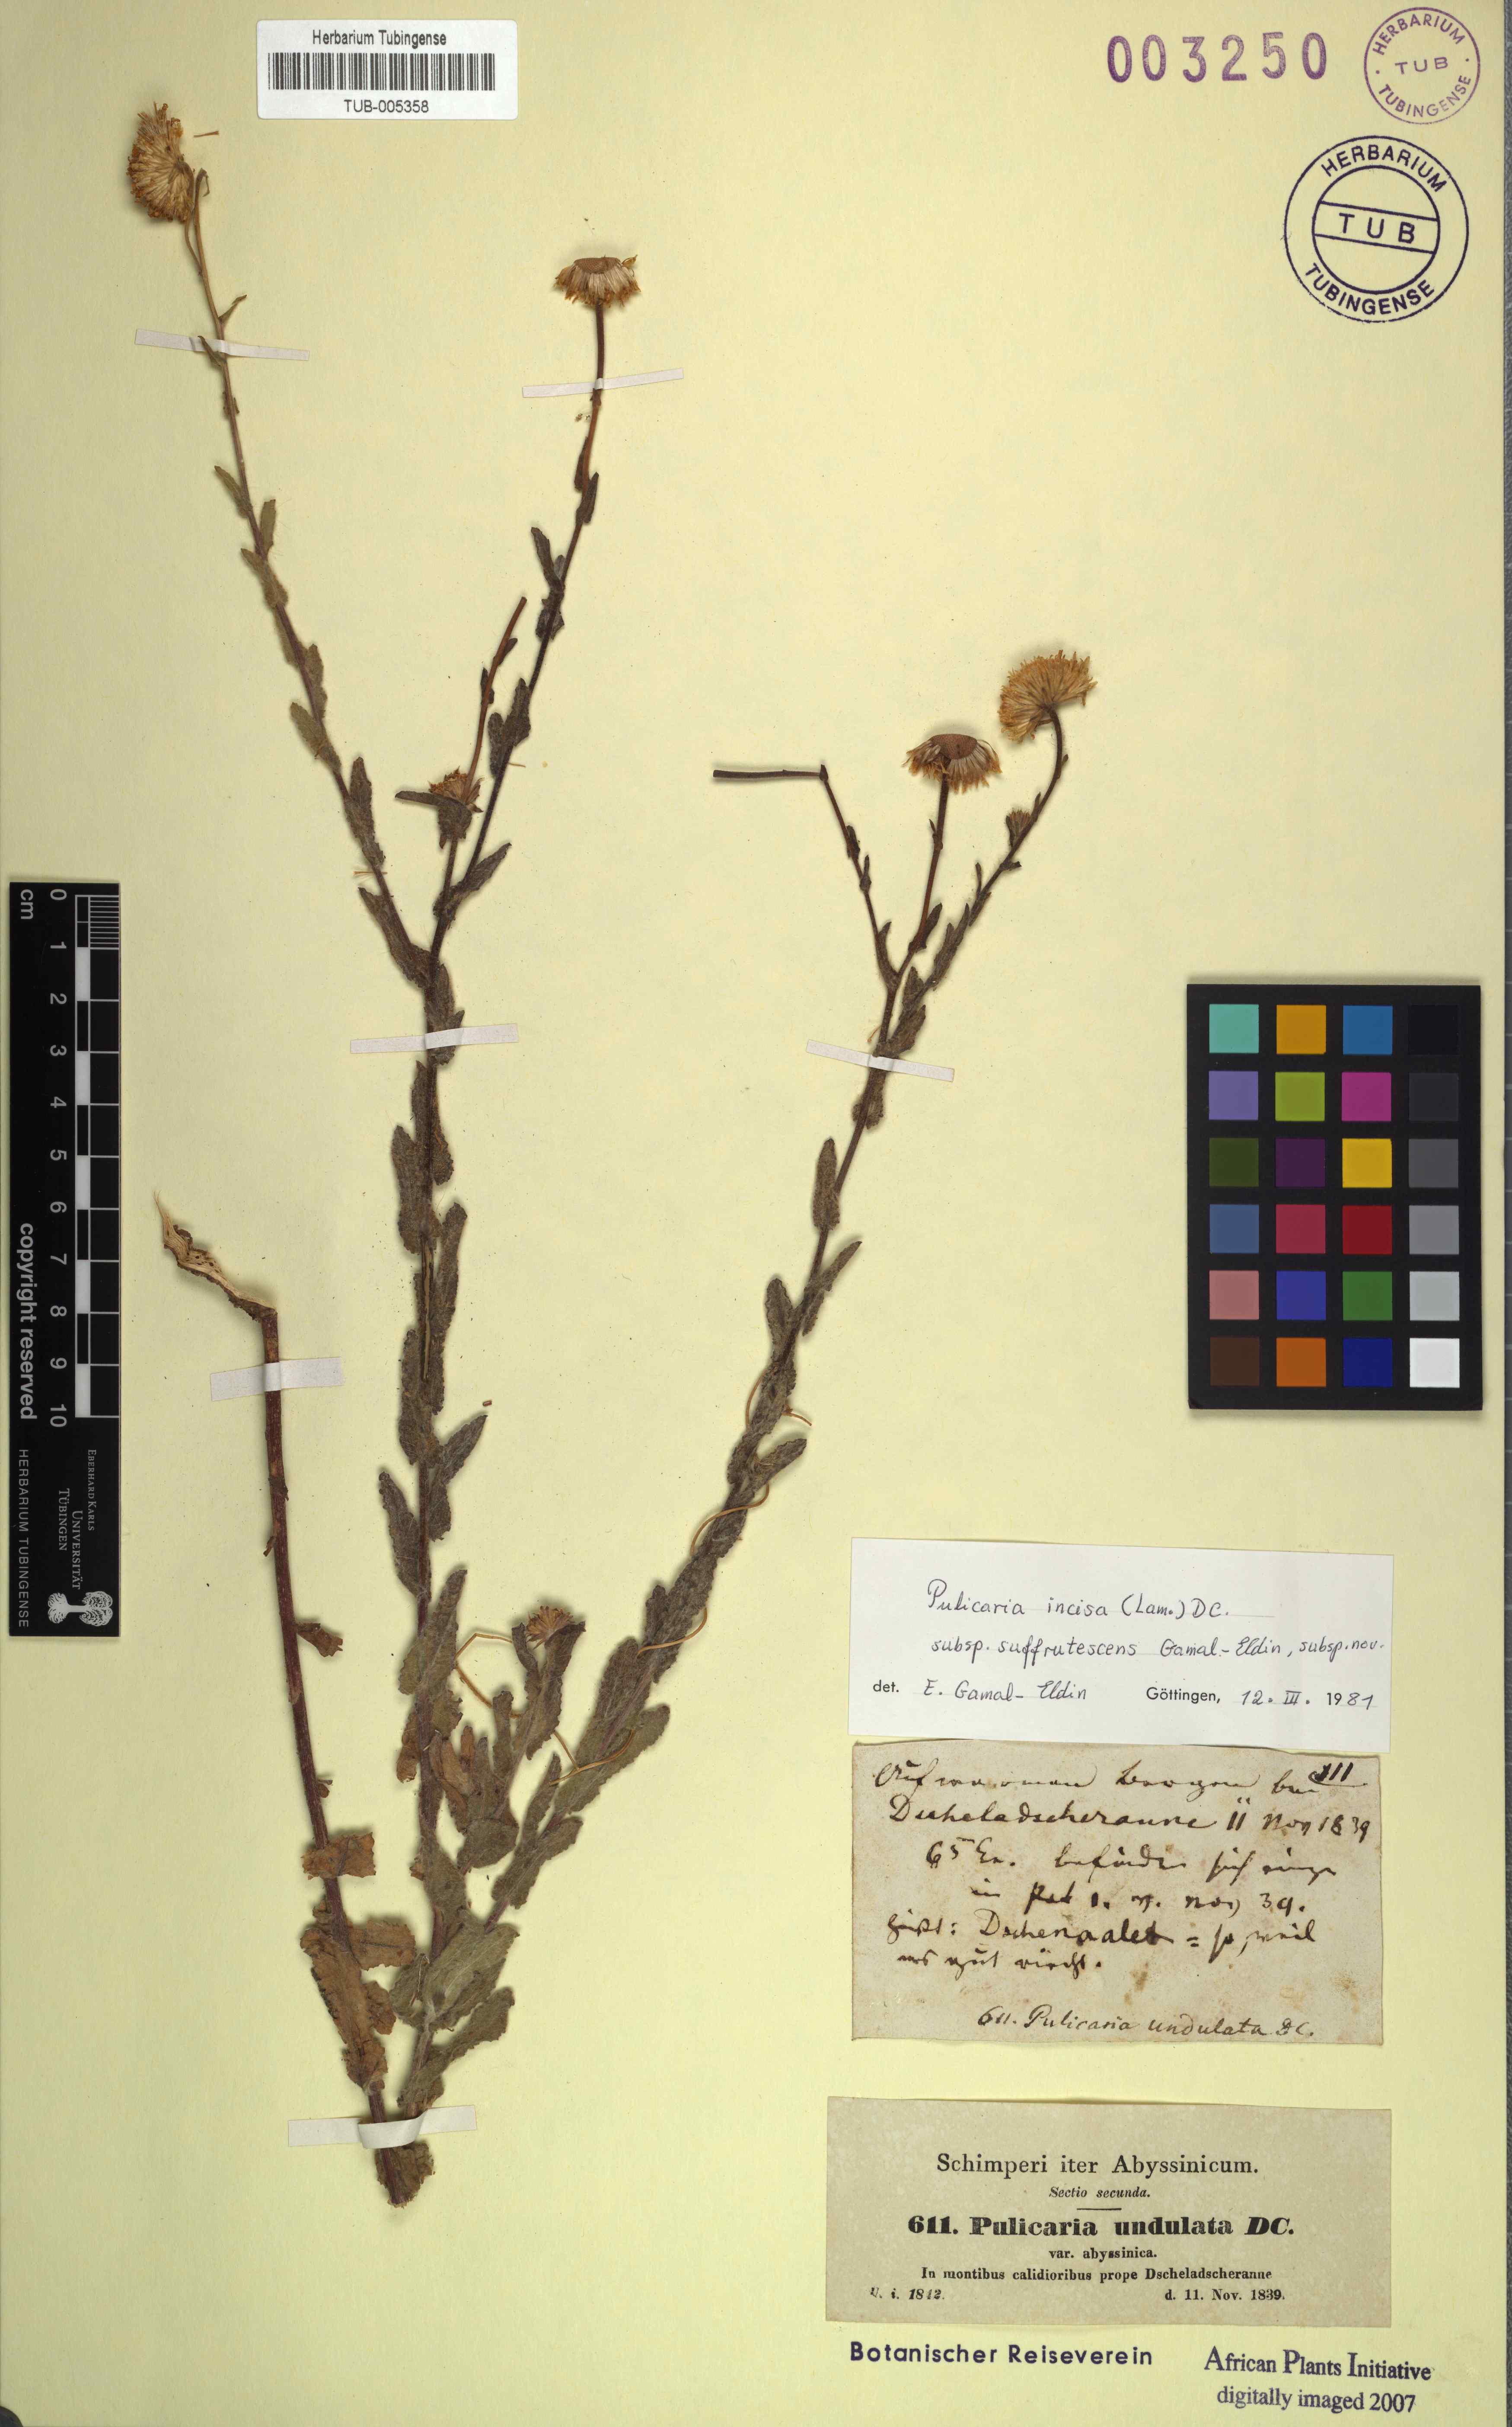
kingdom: Plantae
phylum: Tracheophyta
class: Magnoliopsida
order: Asterales
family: Asteraceae
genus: Pulicaria
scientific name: Pulicaria incisa
